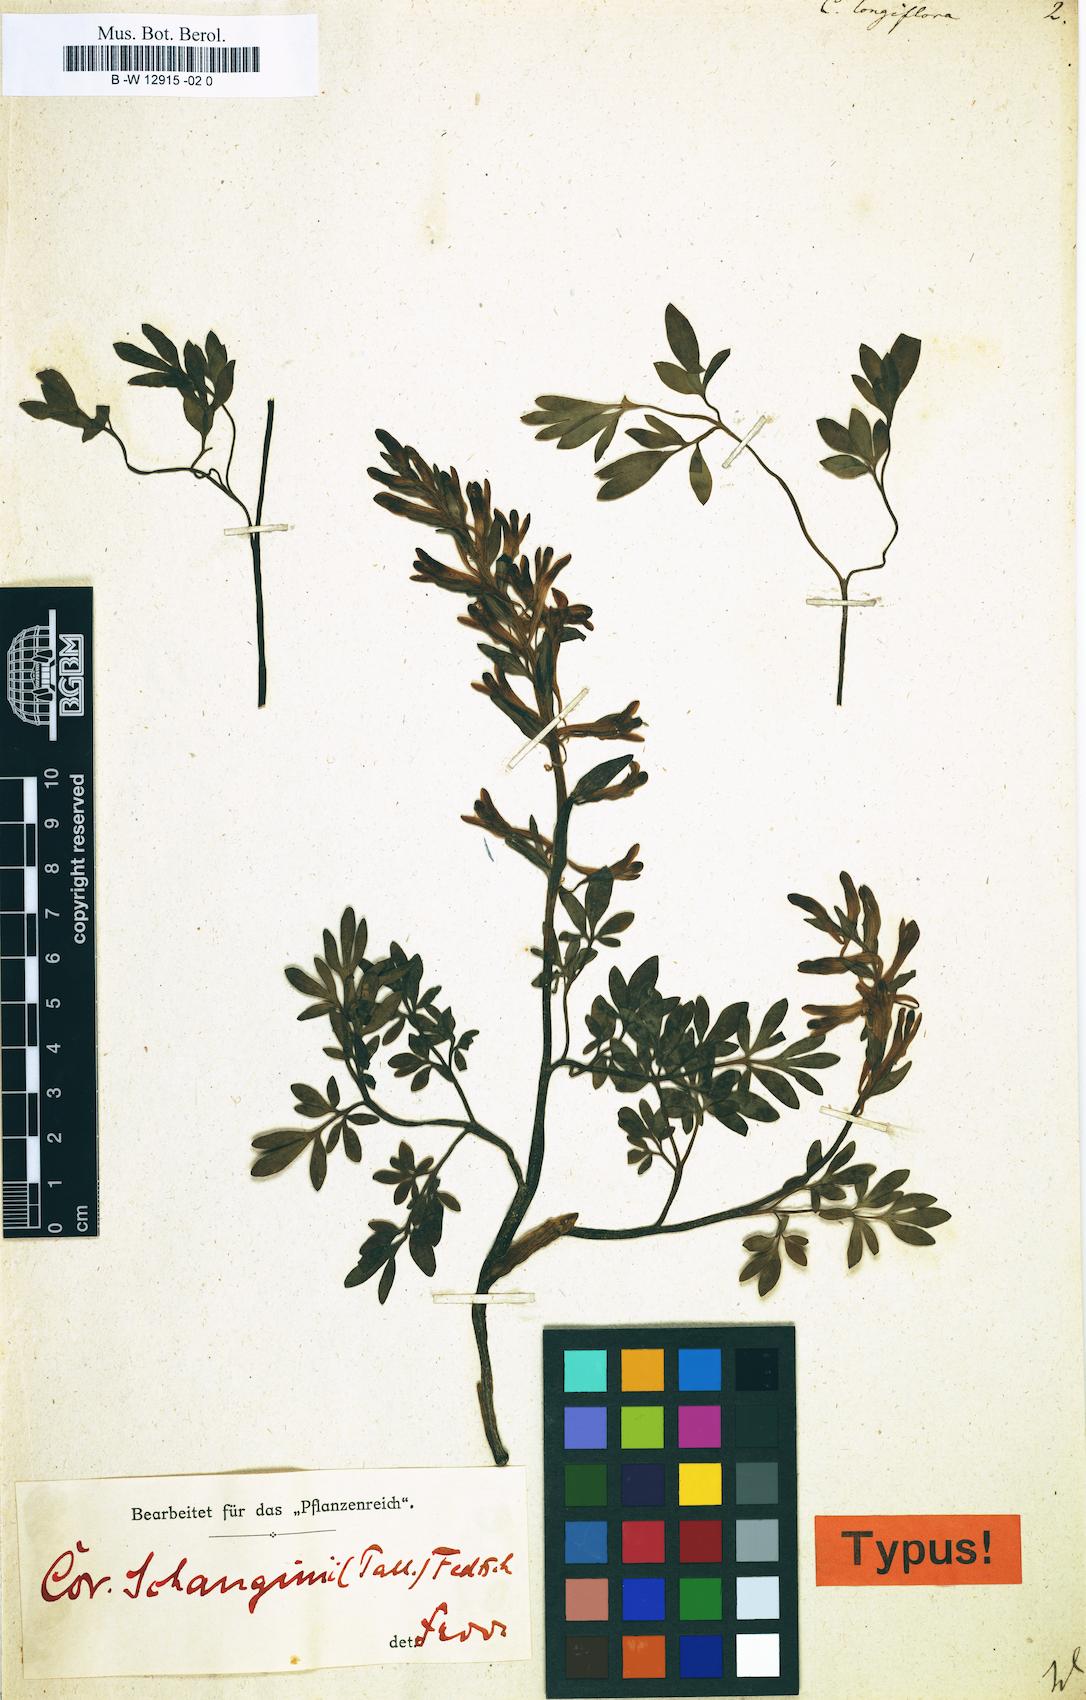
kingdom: Plantae
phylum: Tracheophyta
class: Magnoliopsida
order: Ranunculales
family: Papaveraceae
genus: Corydalis
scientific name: Corydalis schanginii
